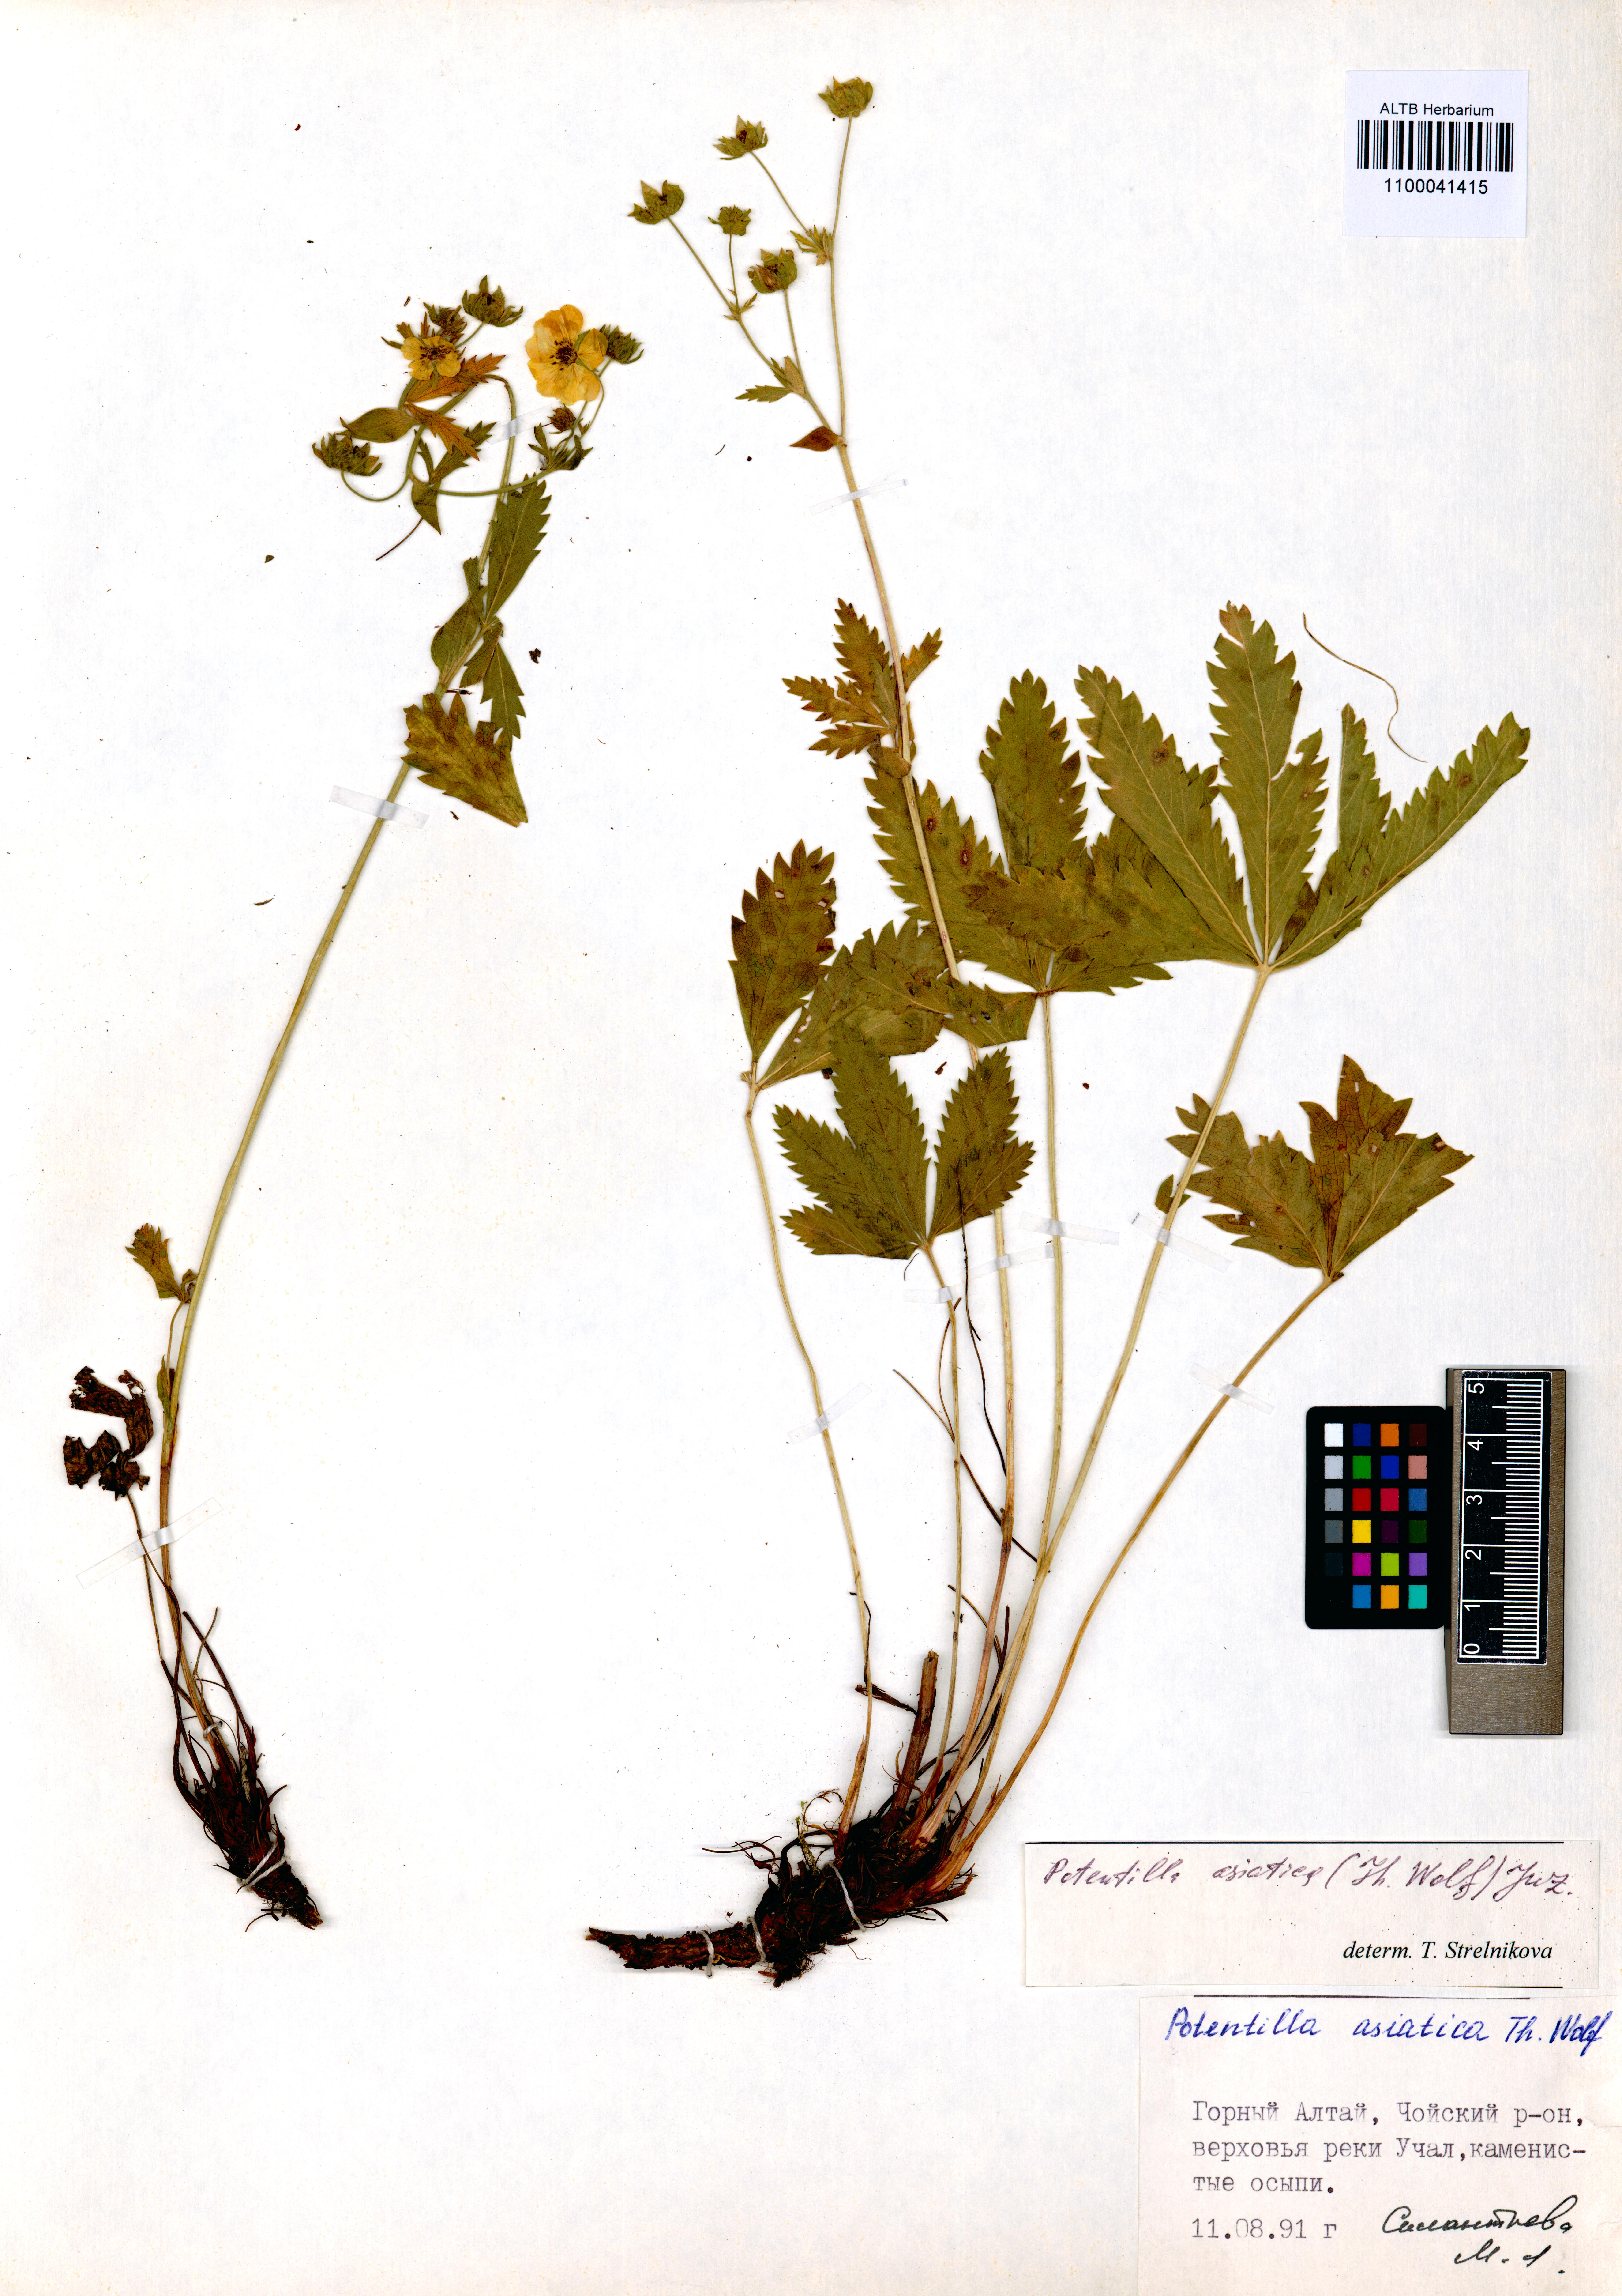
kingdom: Plantae
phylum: Tracheophyta
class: Magnoliopsida
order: Rosales
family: Rosaceae
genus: Potentilla
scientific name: Potentilla asiatica
